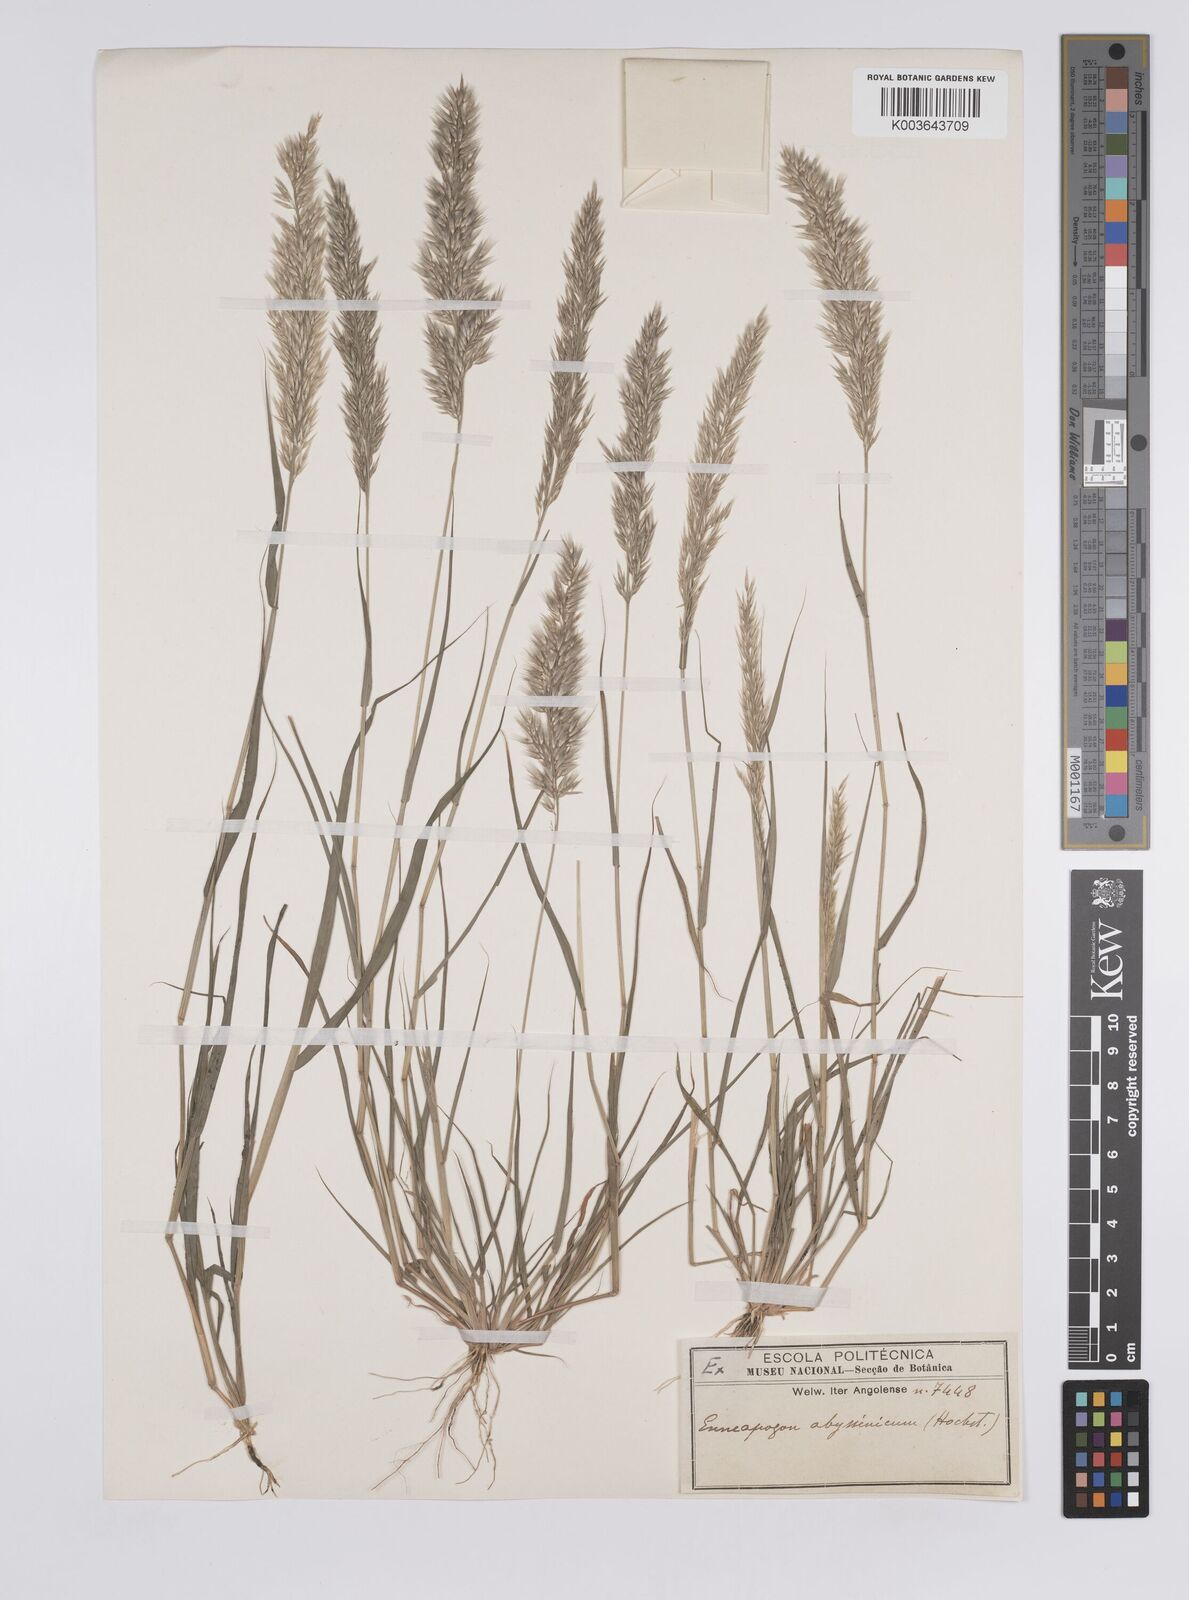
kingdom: Plantae
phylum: Tracheophyta
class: Liliopsida
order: Poales
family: Poaceae
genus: Enneapogon
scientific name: Enneapogon cenchroides
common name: Soft feather pappusgrass
